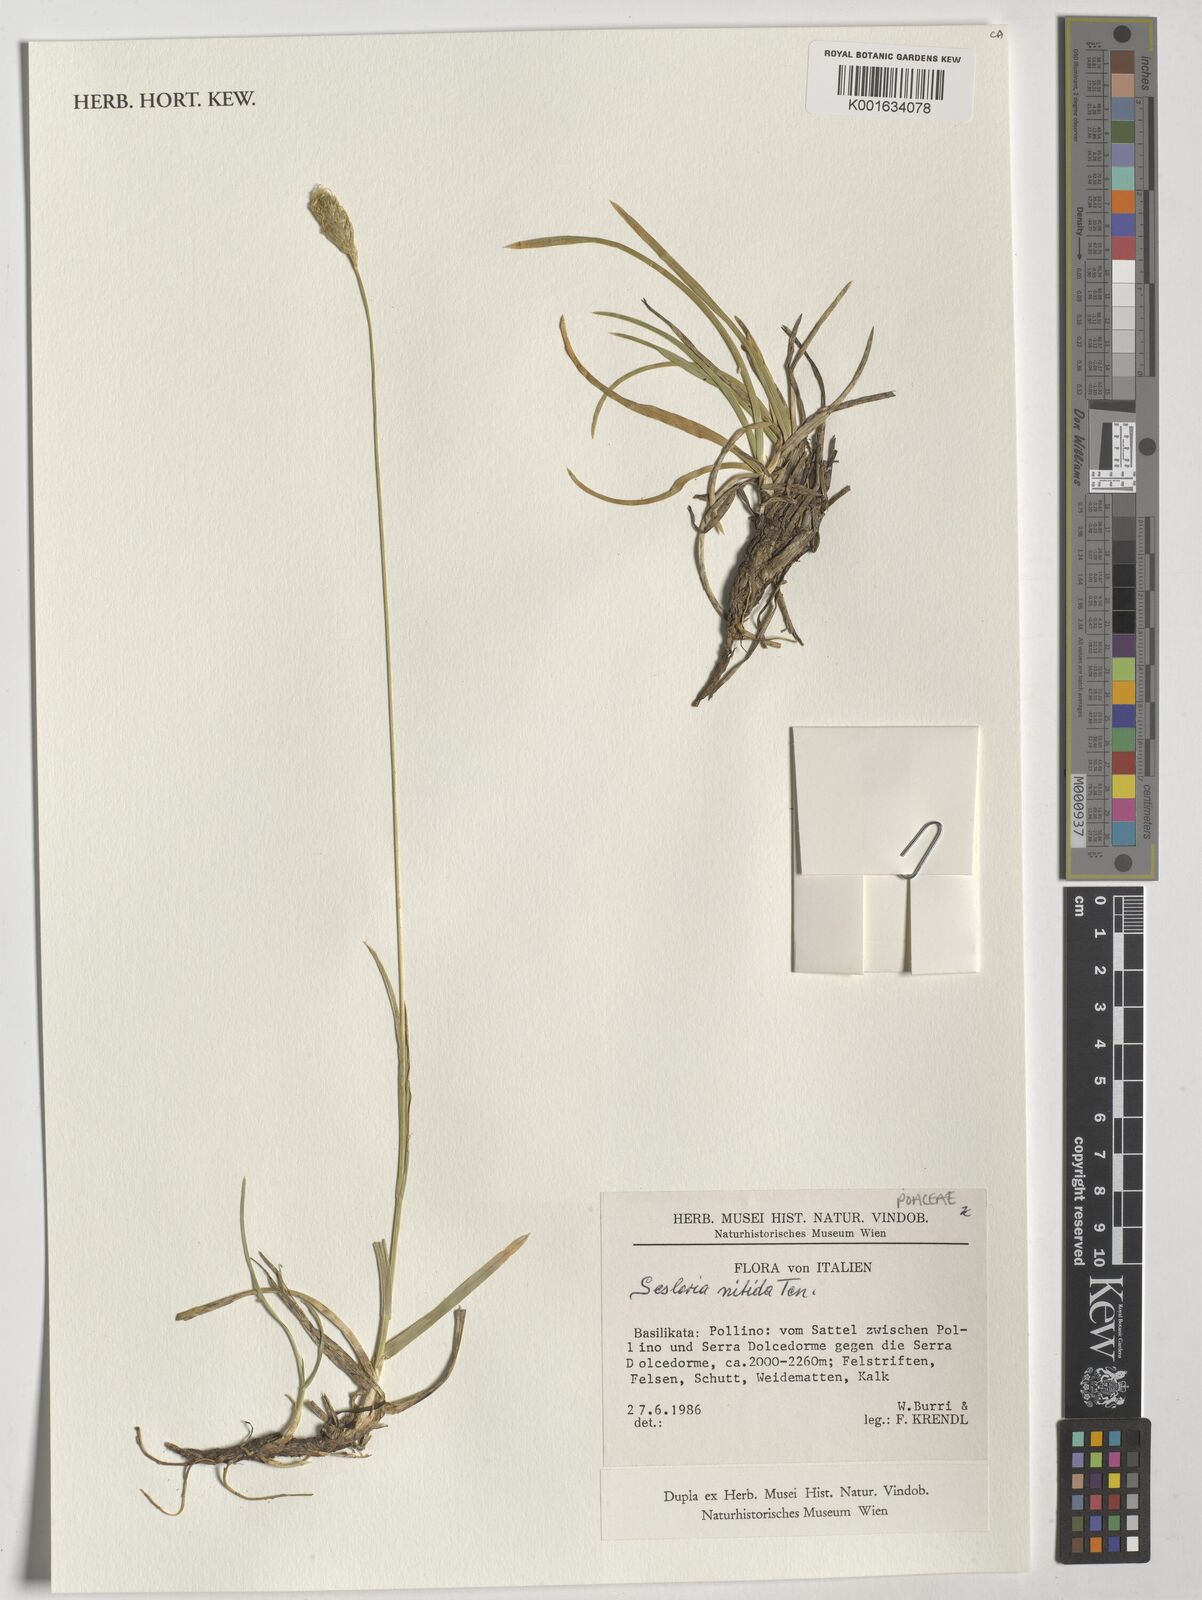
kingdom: Plantae
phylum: Tracheophyta
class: Liliopsida
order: Poales
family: Poaceae
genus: Sesleria
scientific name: Sesleria nitida
